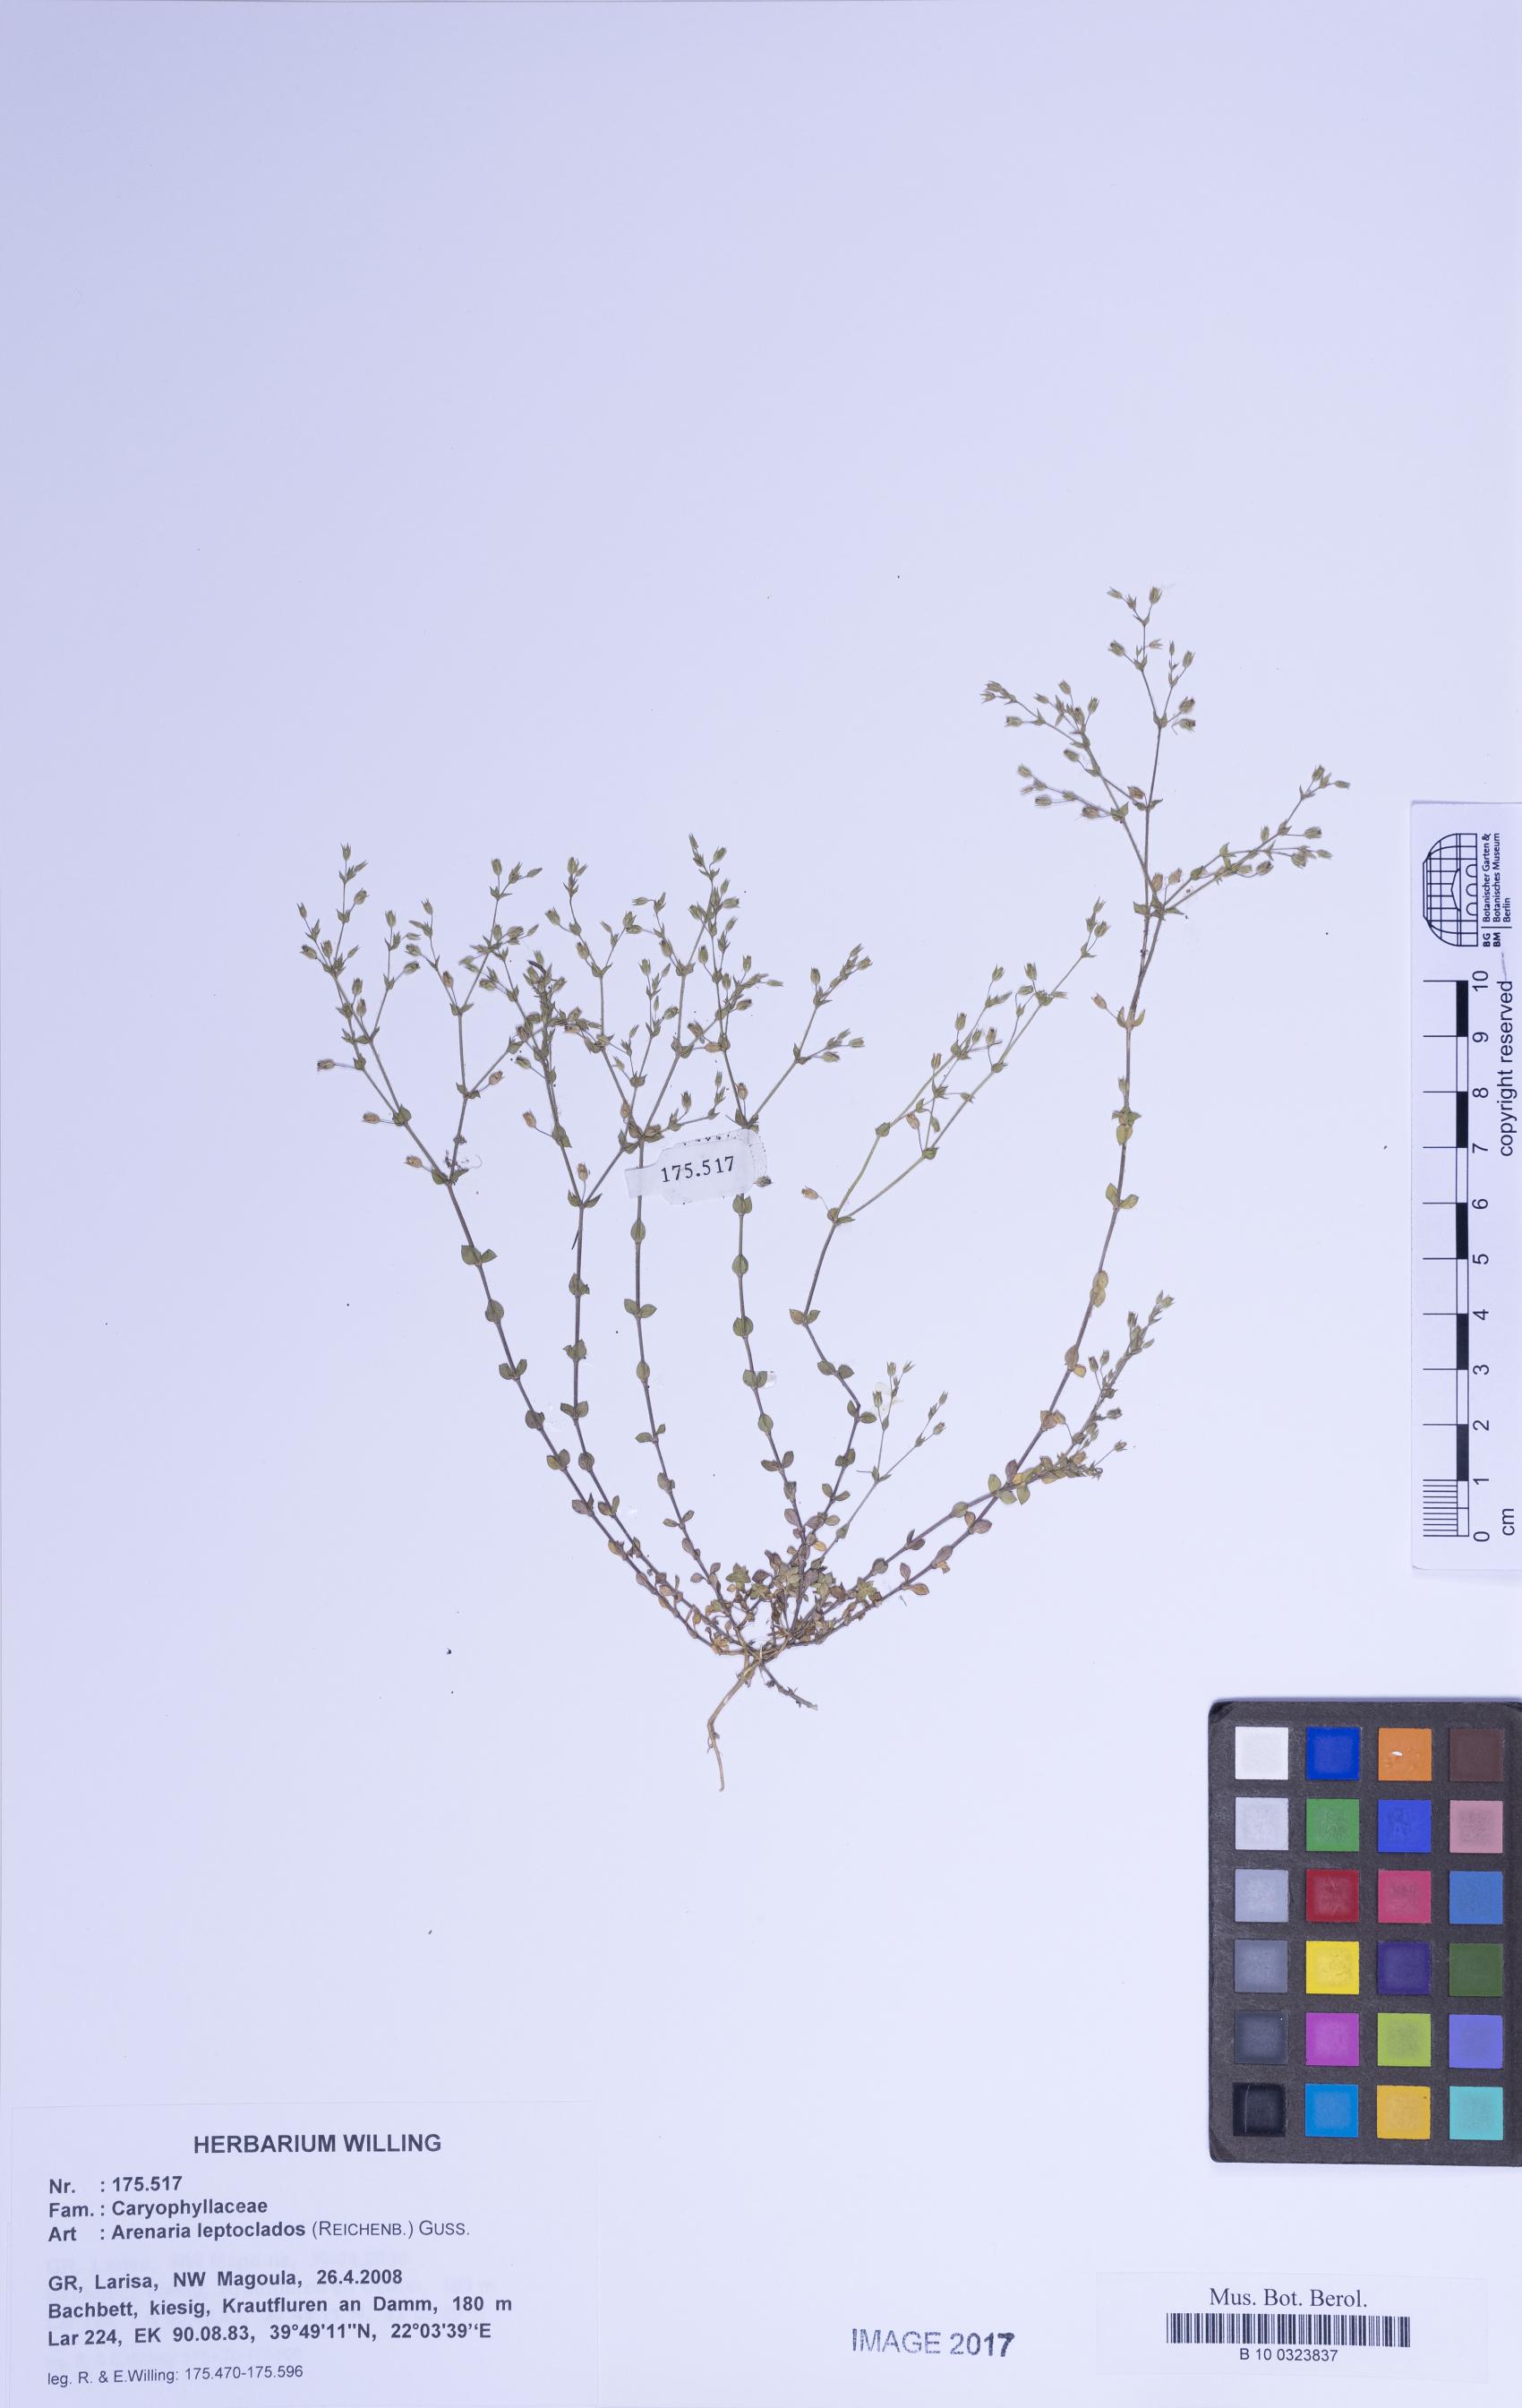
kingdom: Plantae
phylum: Tracheophyta
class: Magnoliopsida
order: Caryophyllales
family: Caryophyllaceae
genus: Arenaria
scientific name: Arenaria leptoclados
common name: Thyme-leaved sandwort
